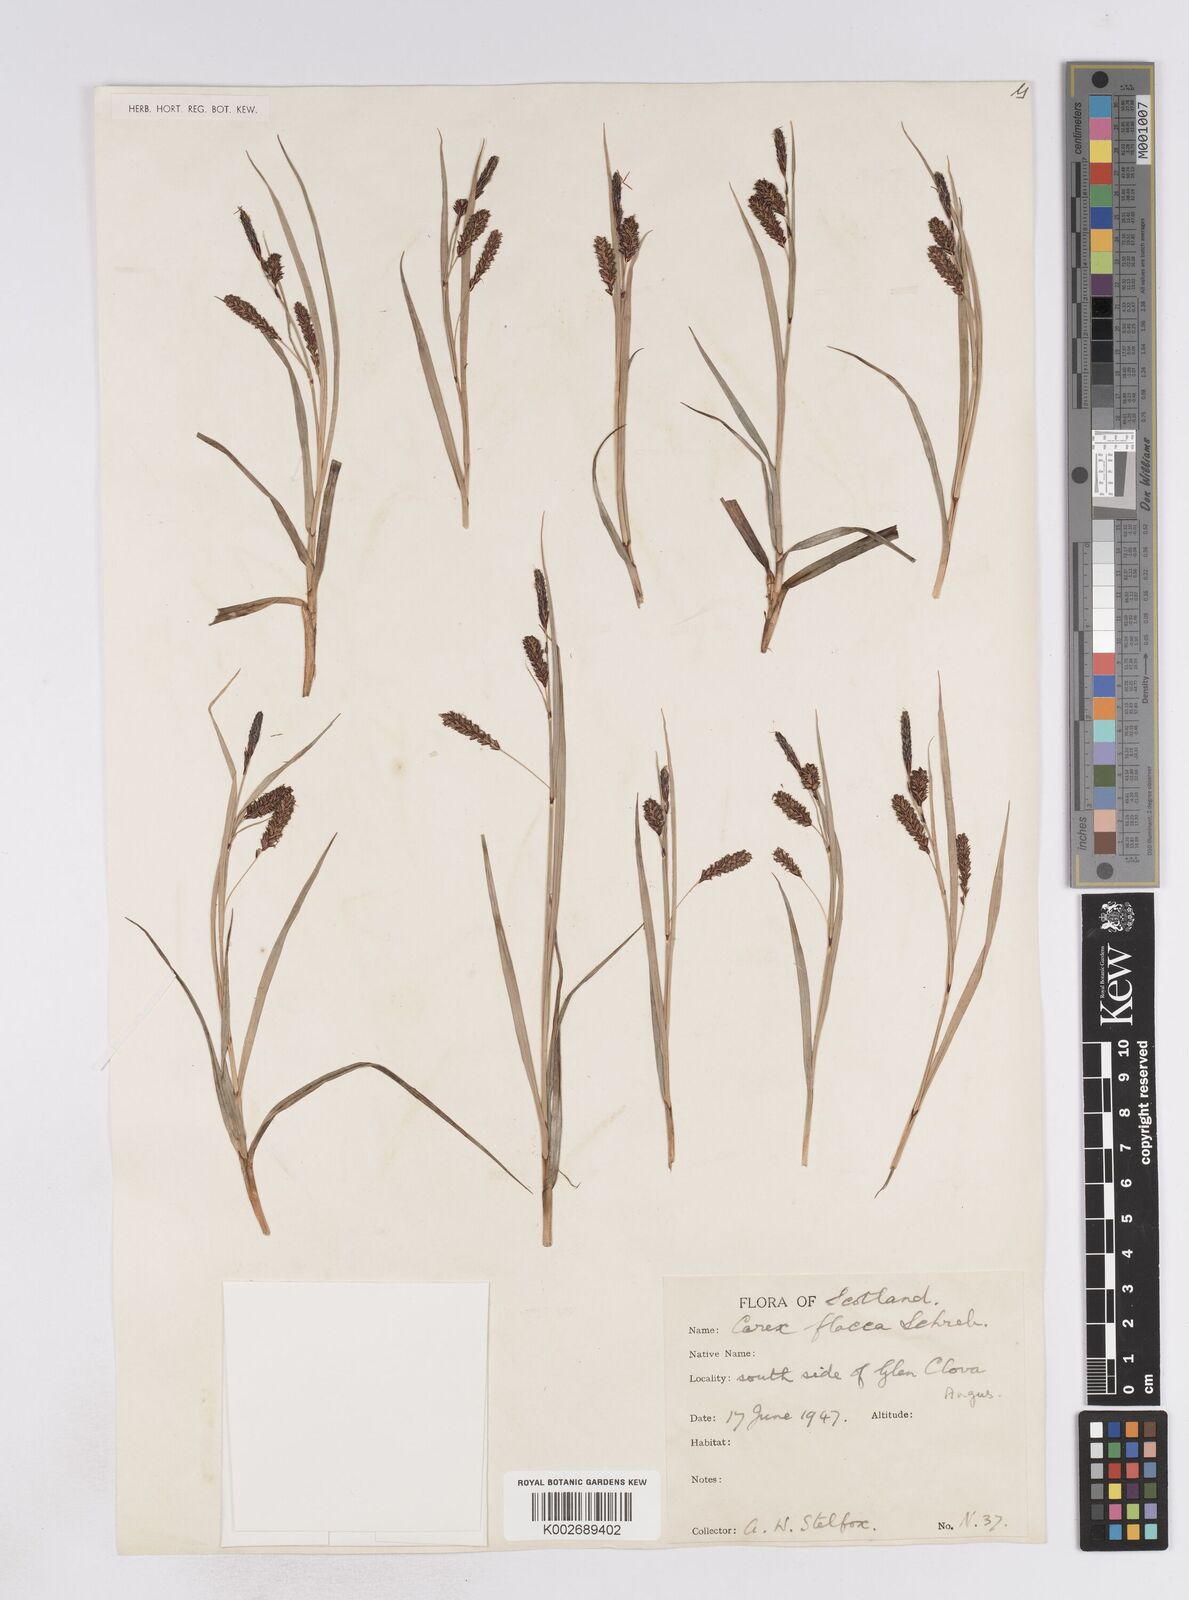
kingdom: Plantae
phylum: Tracheophyta
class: Liliopsida
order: Poales
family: Cyperaceae
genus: Carex
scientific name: Carex flacca
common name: Glaucous sedge
